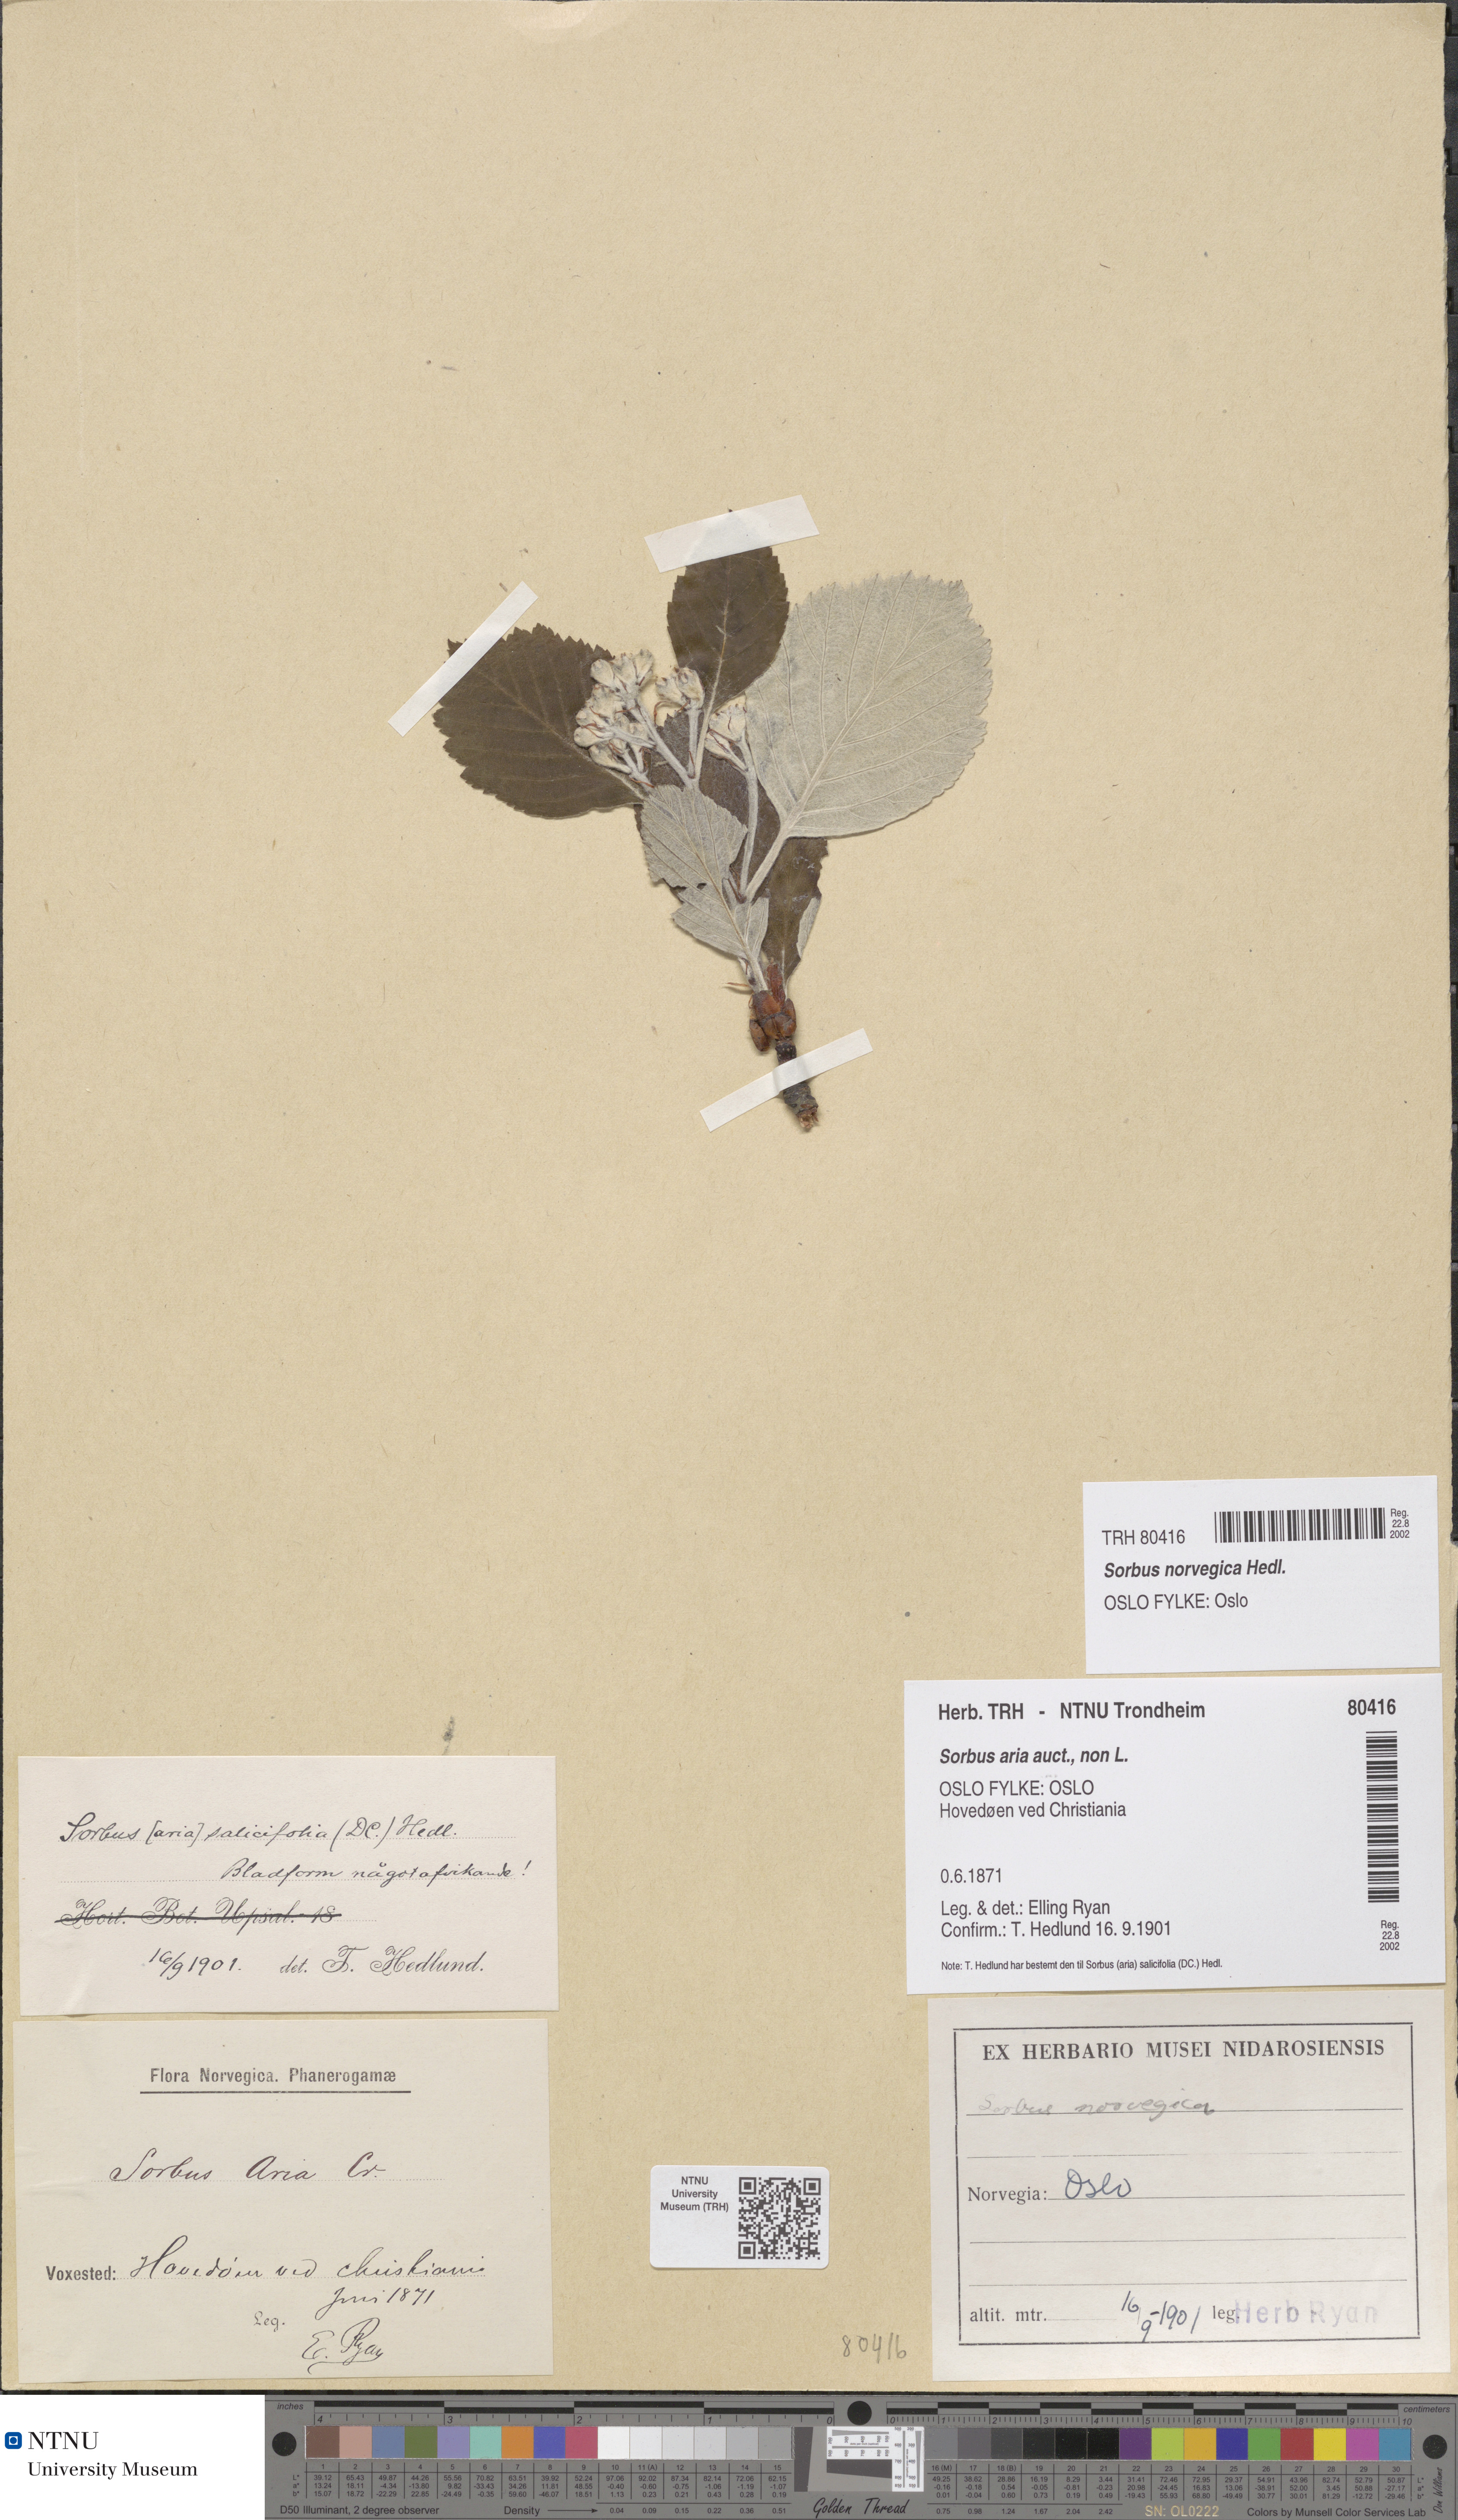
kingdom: Plantae
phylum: Tracheophyta
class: Magnoliopsida
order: Rosales
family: Rosaceae
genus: Aria
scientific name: Aria rupicola
